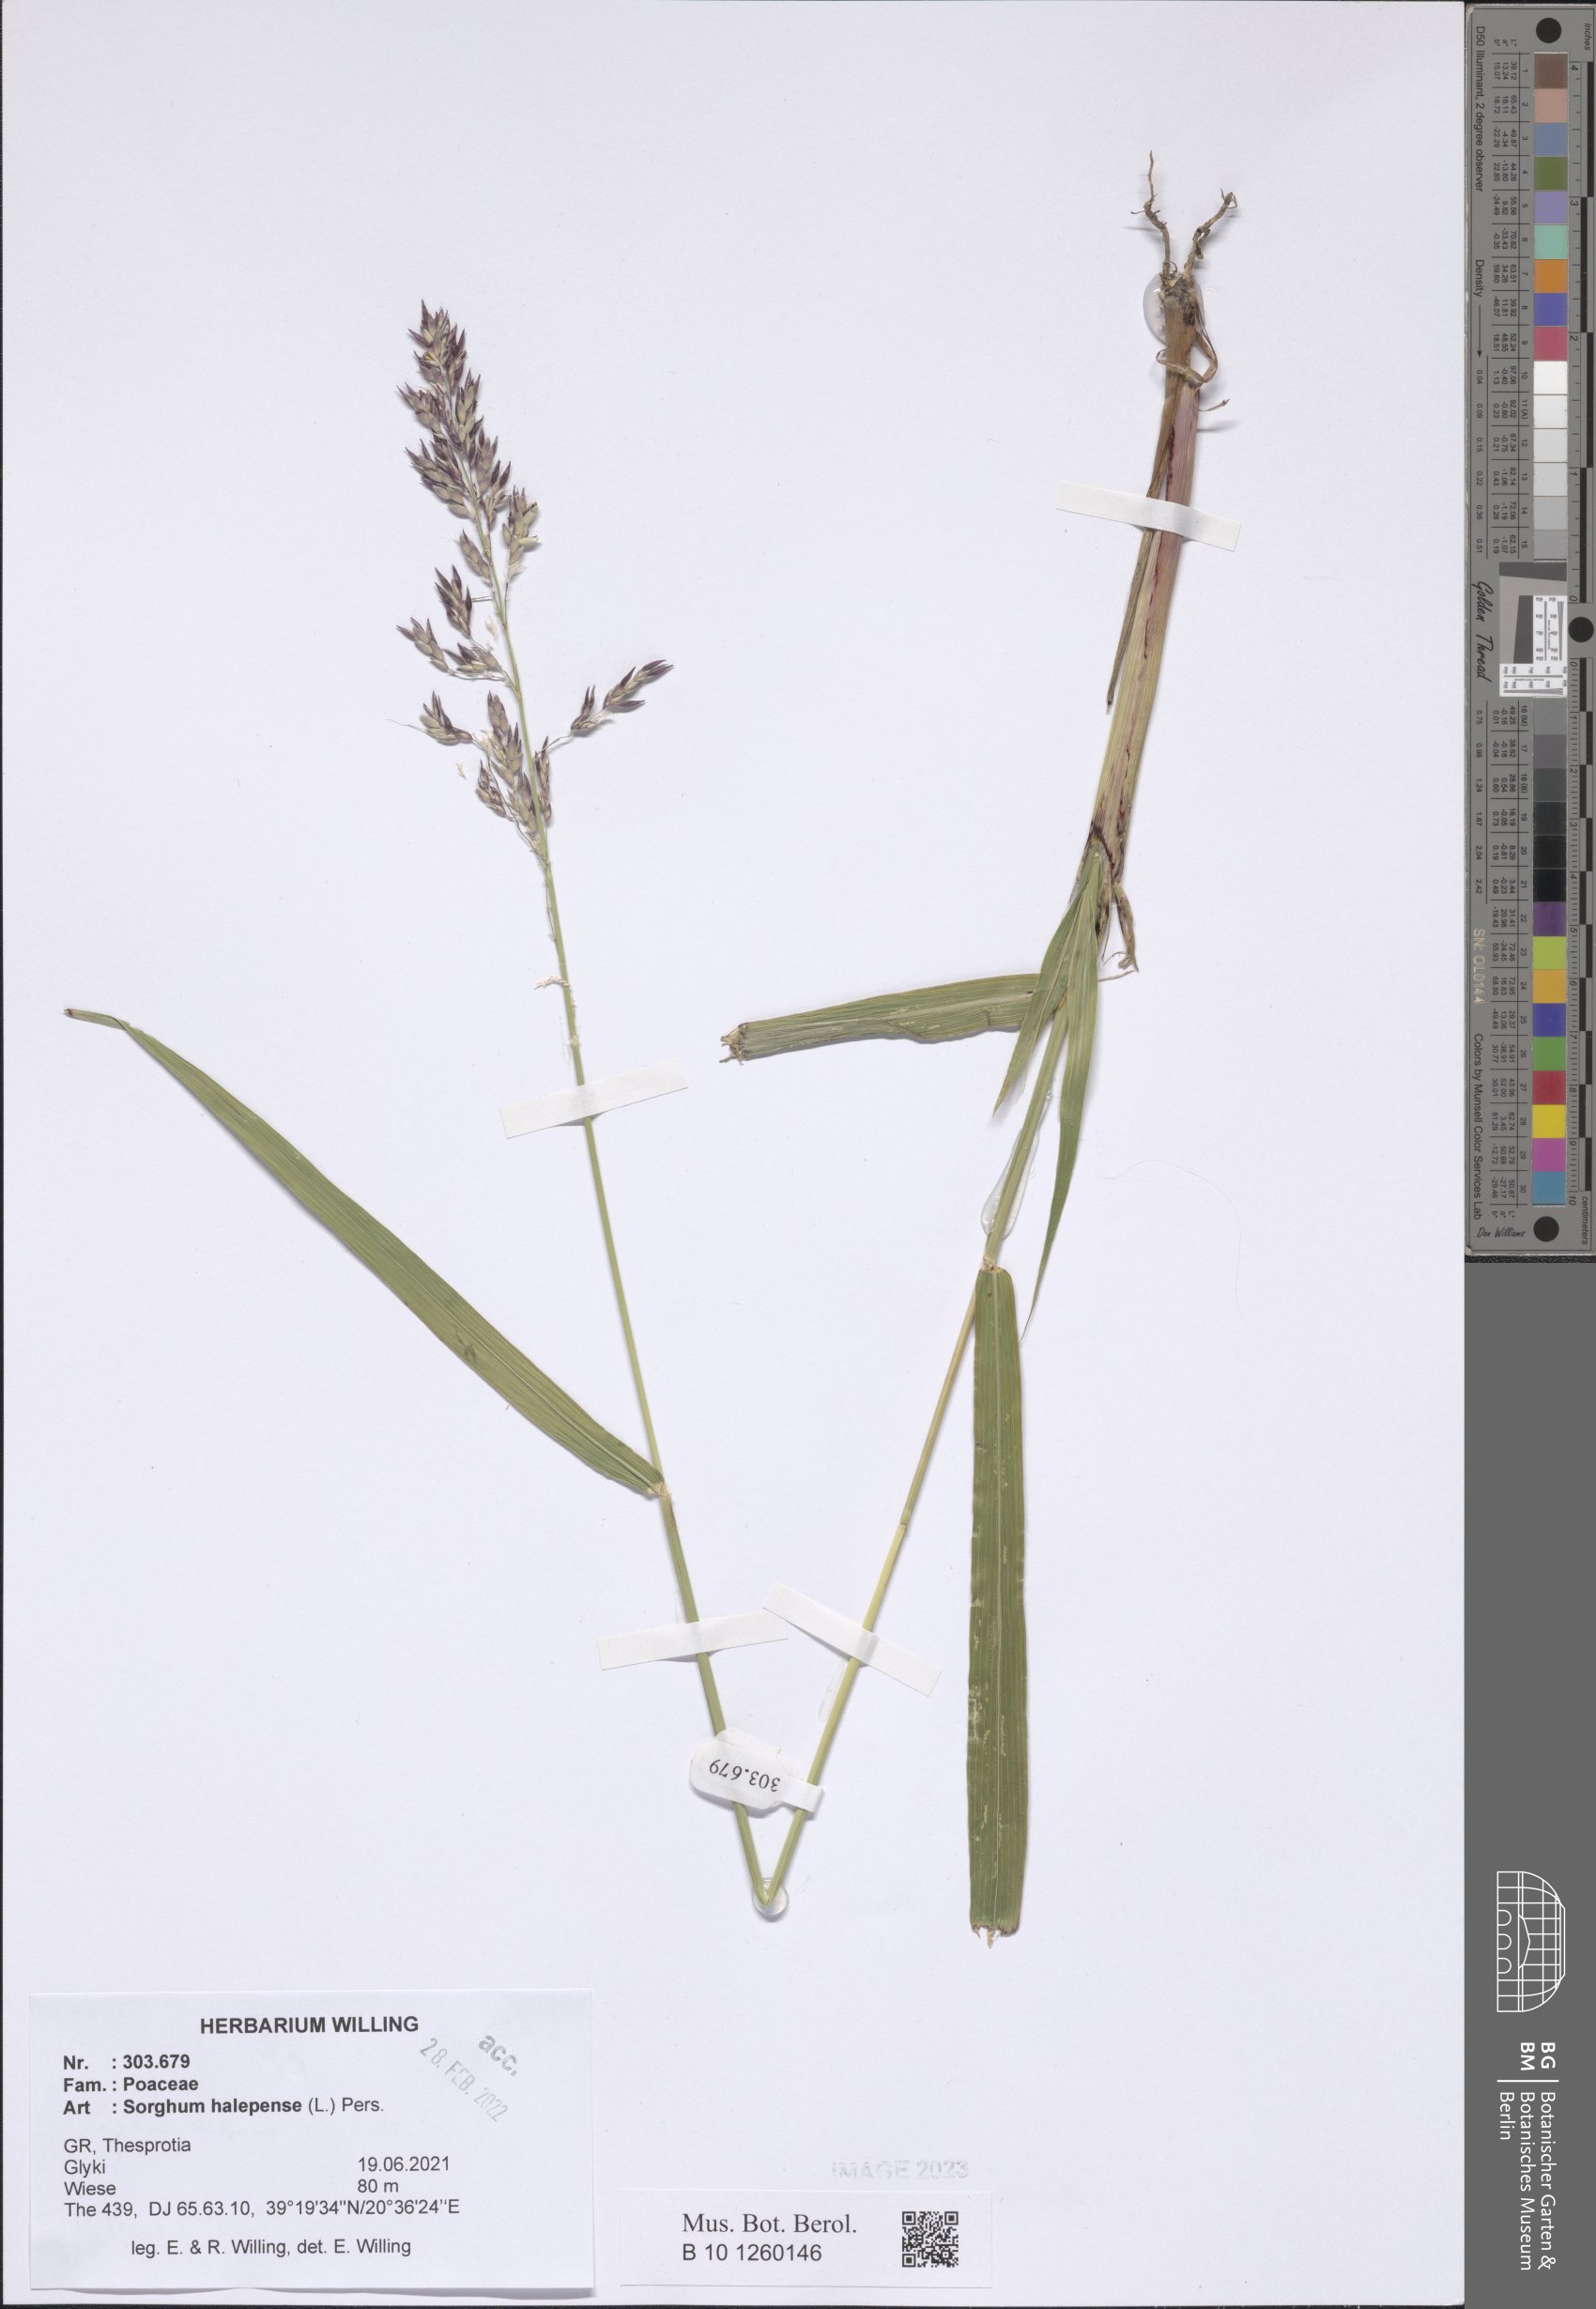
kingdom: Plantae
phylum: Tracheophyta
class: Liliopsida
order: Poales
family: Poaceae
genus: Sorghum
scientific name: Sorghum halepense
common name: Johnson-grass
